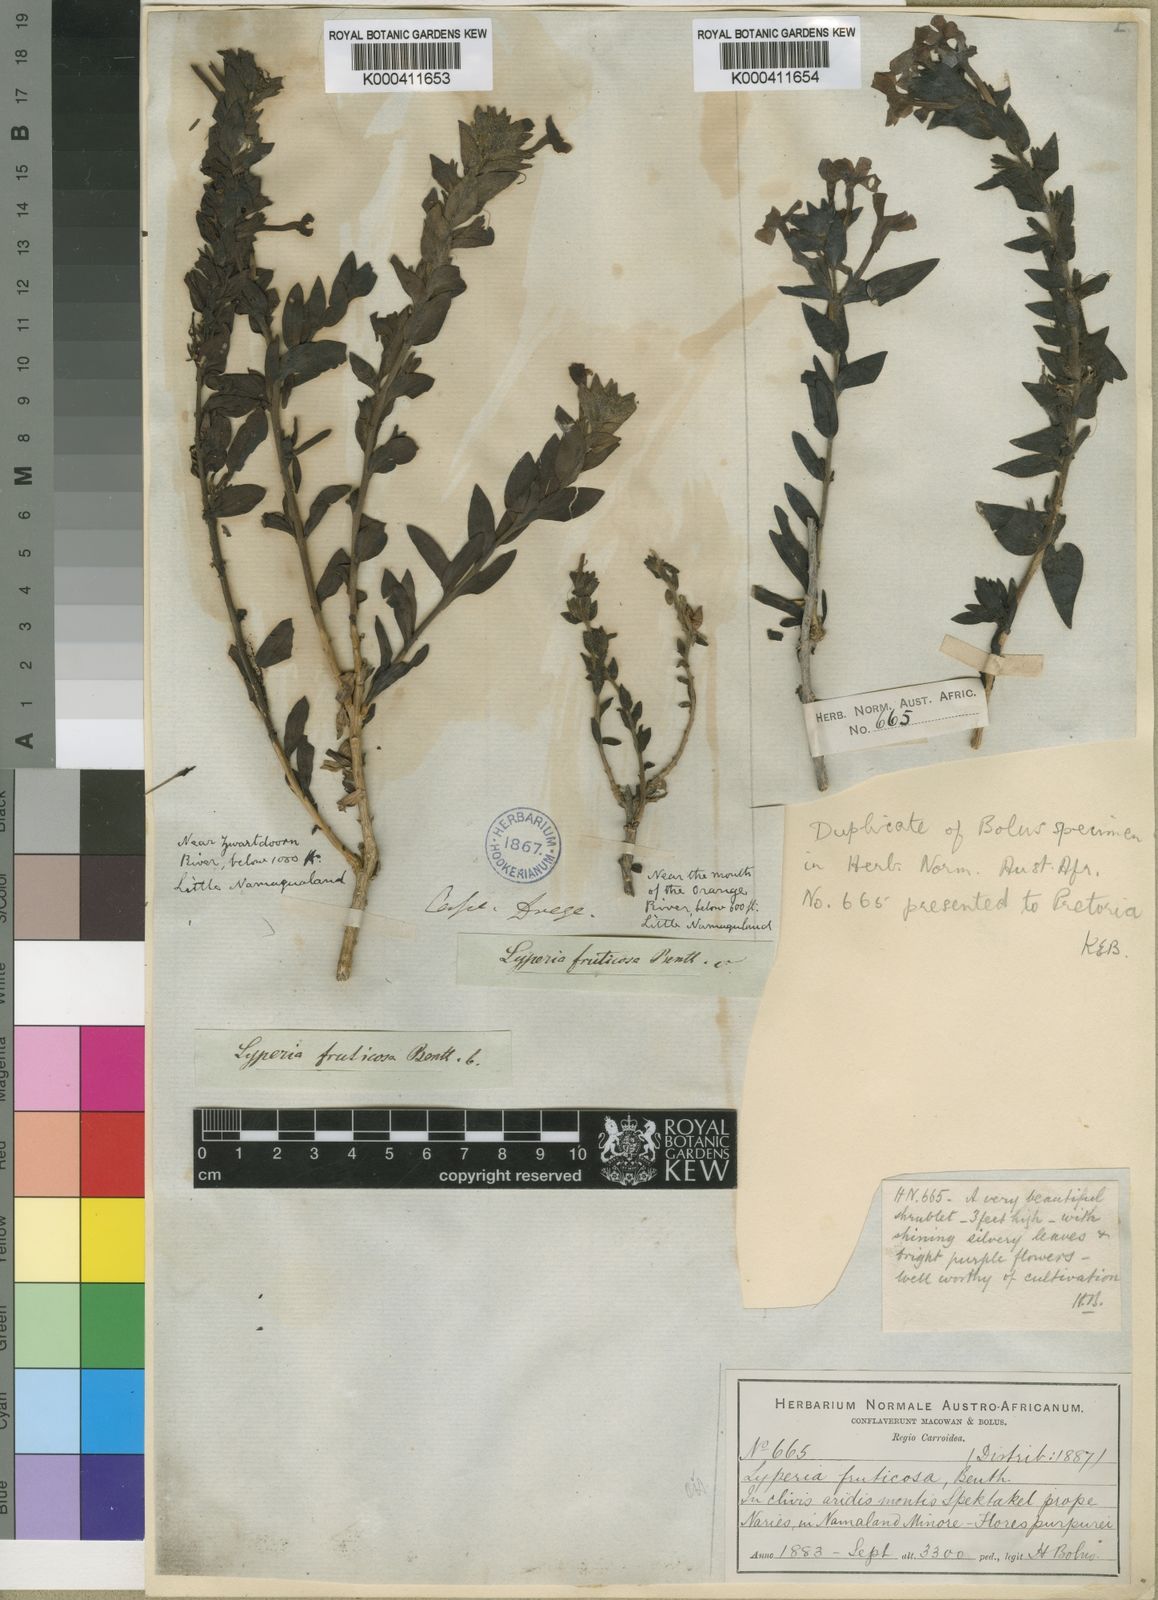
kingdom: Plantae
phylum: Tracheophyta
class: Magnoliopsida
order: Lamiales
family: Scrophulariaceae
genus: Jamesbrittenia
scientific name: Jamesbrittenia fruticosa
